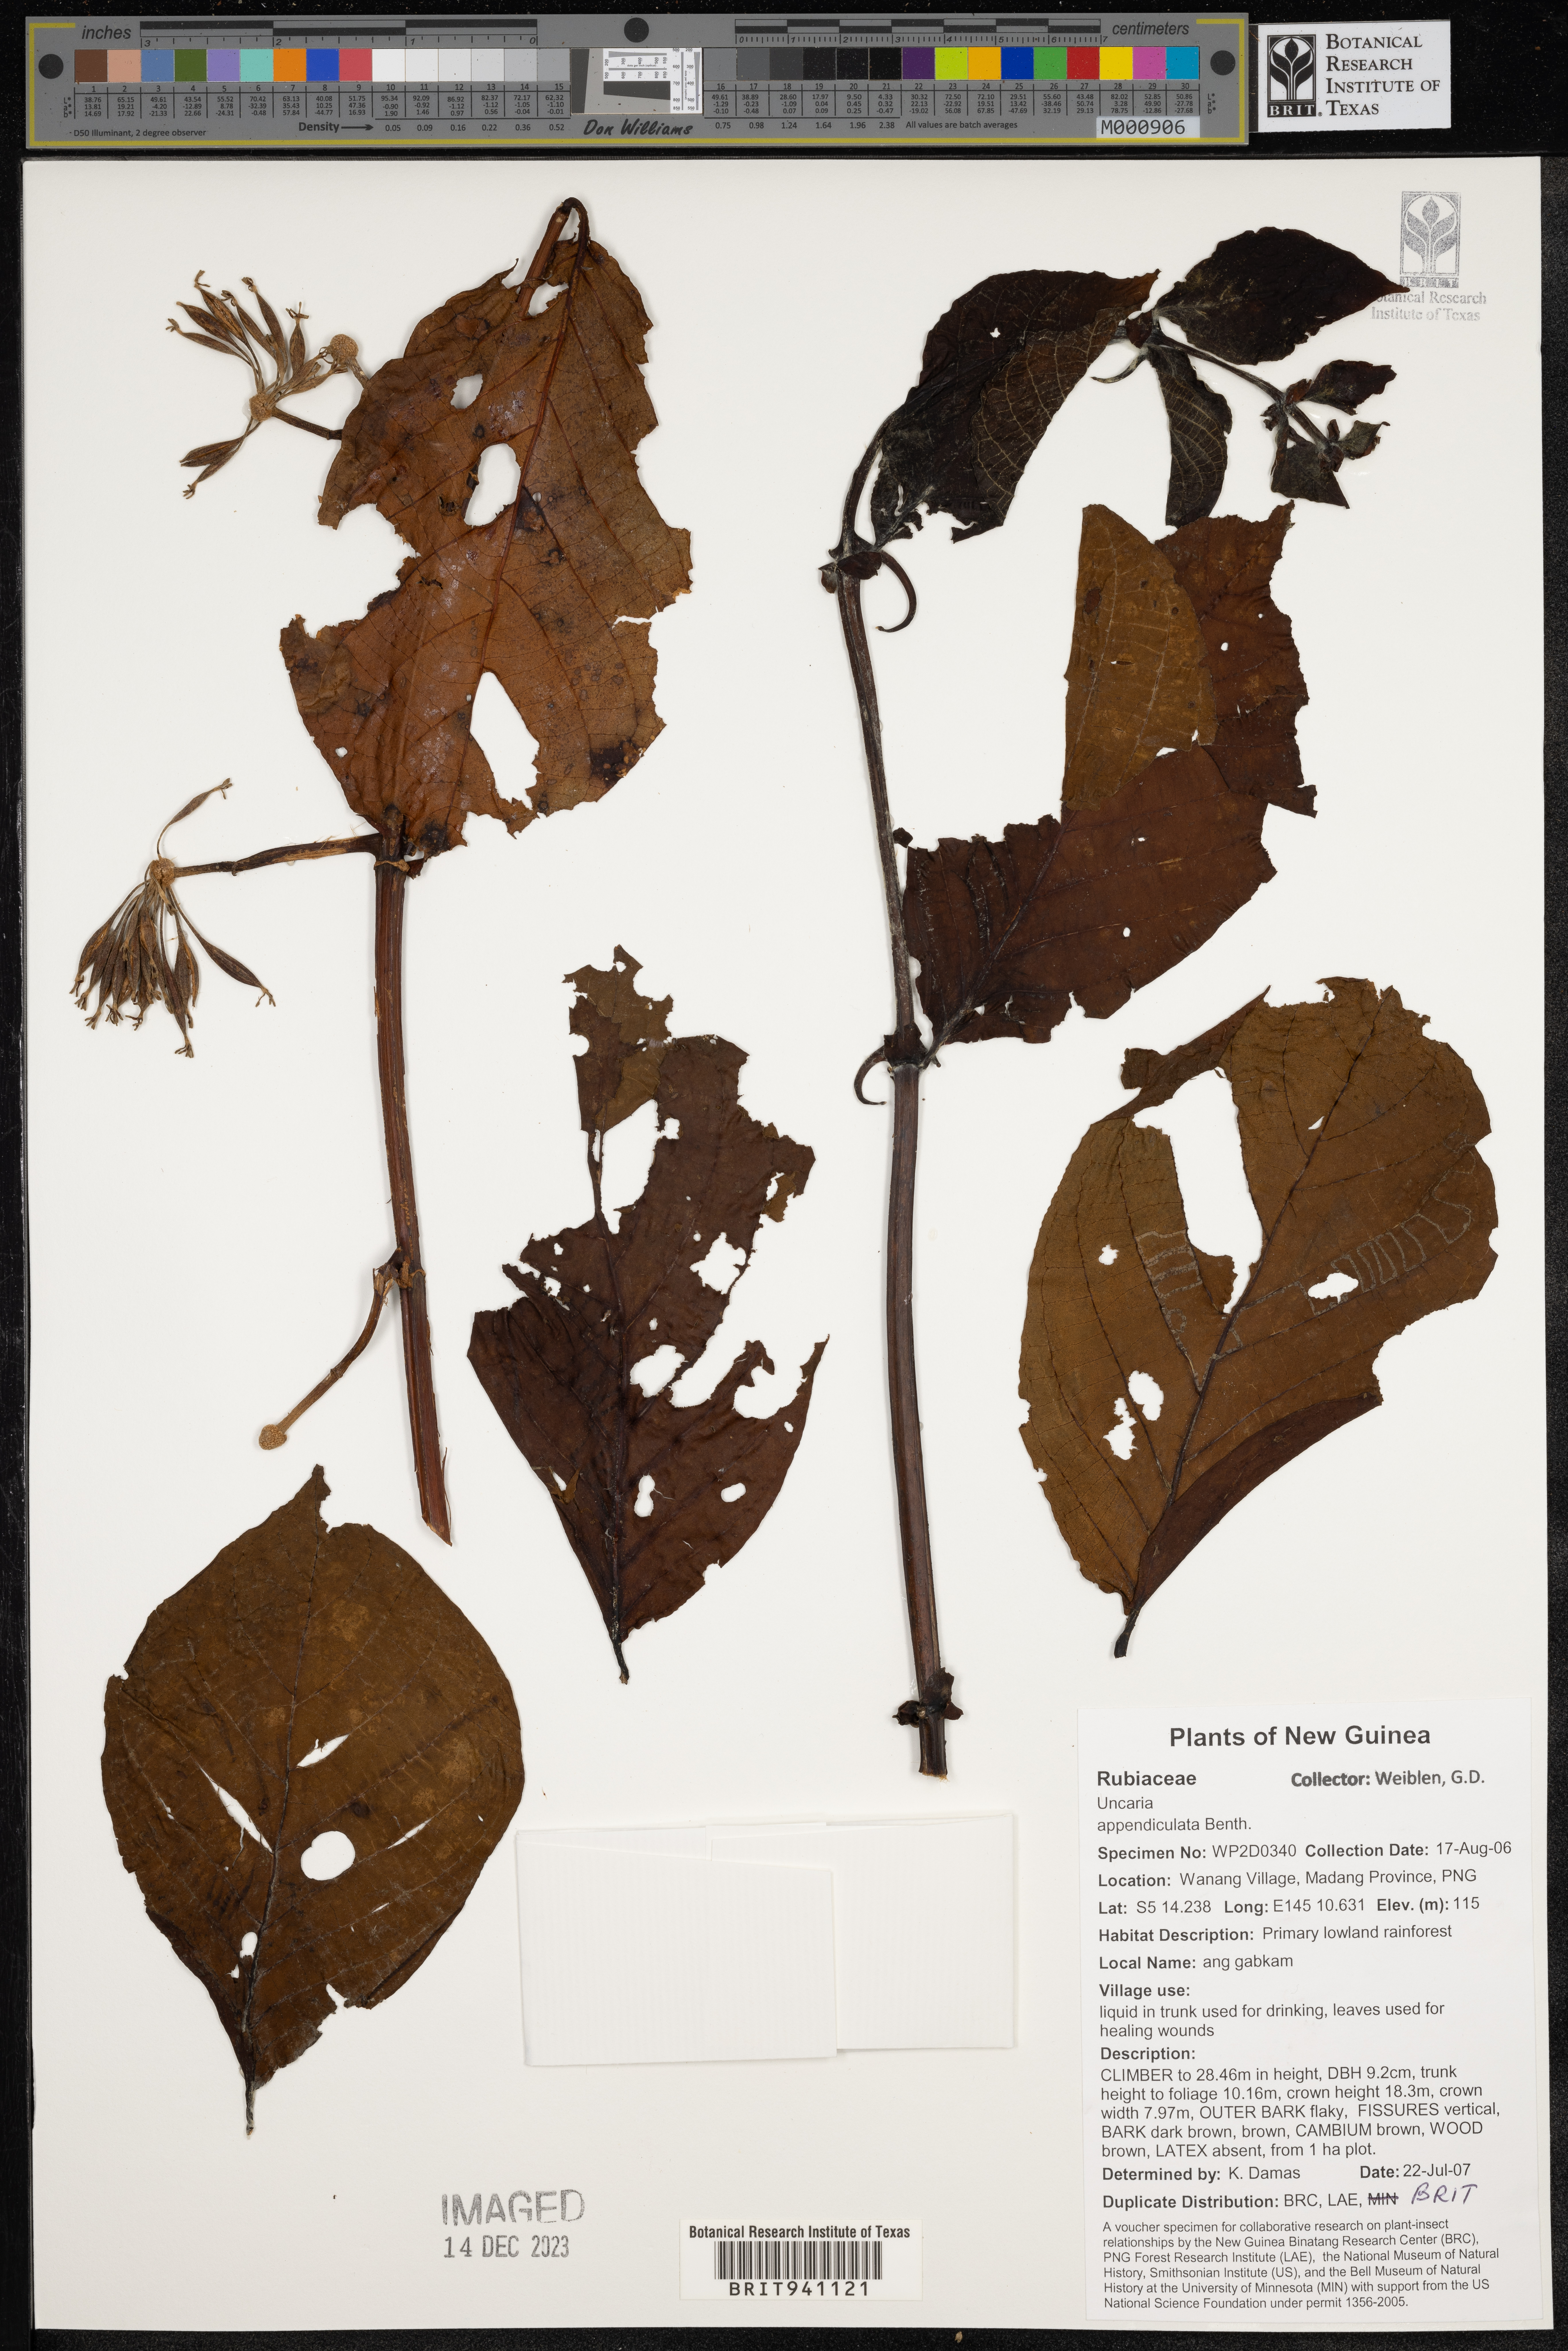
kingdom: Plantae
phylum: Tracheophyta
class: Magnoliopsida
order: Gentianales
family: Rubiaceae
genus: Uncaria
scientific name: Uncaria
